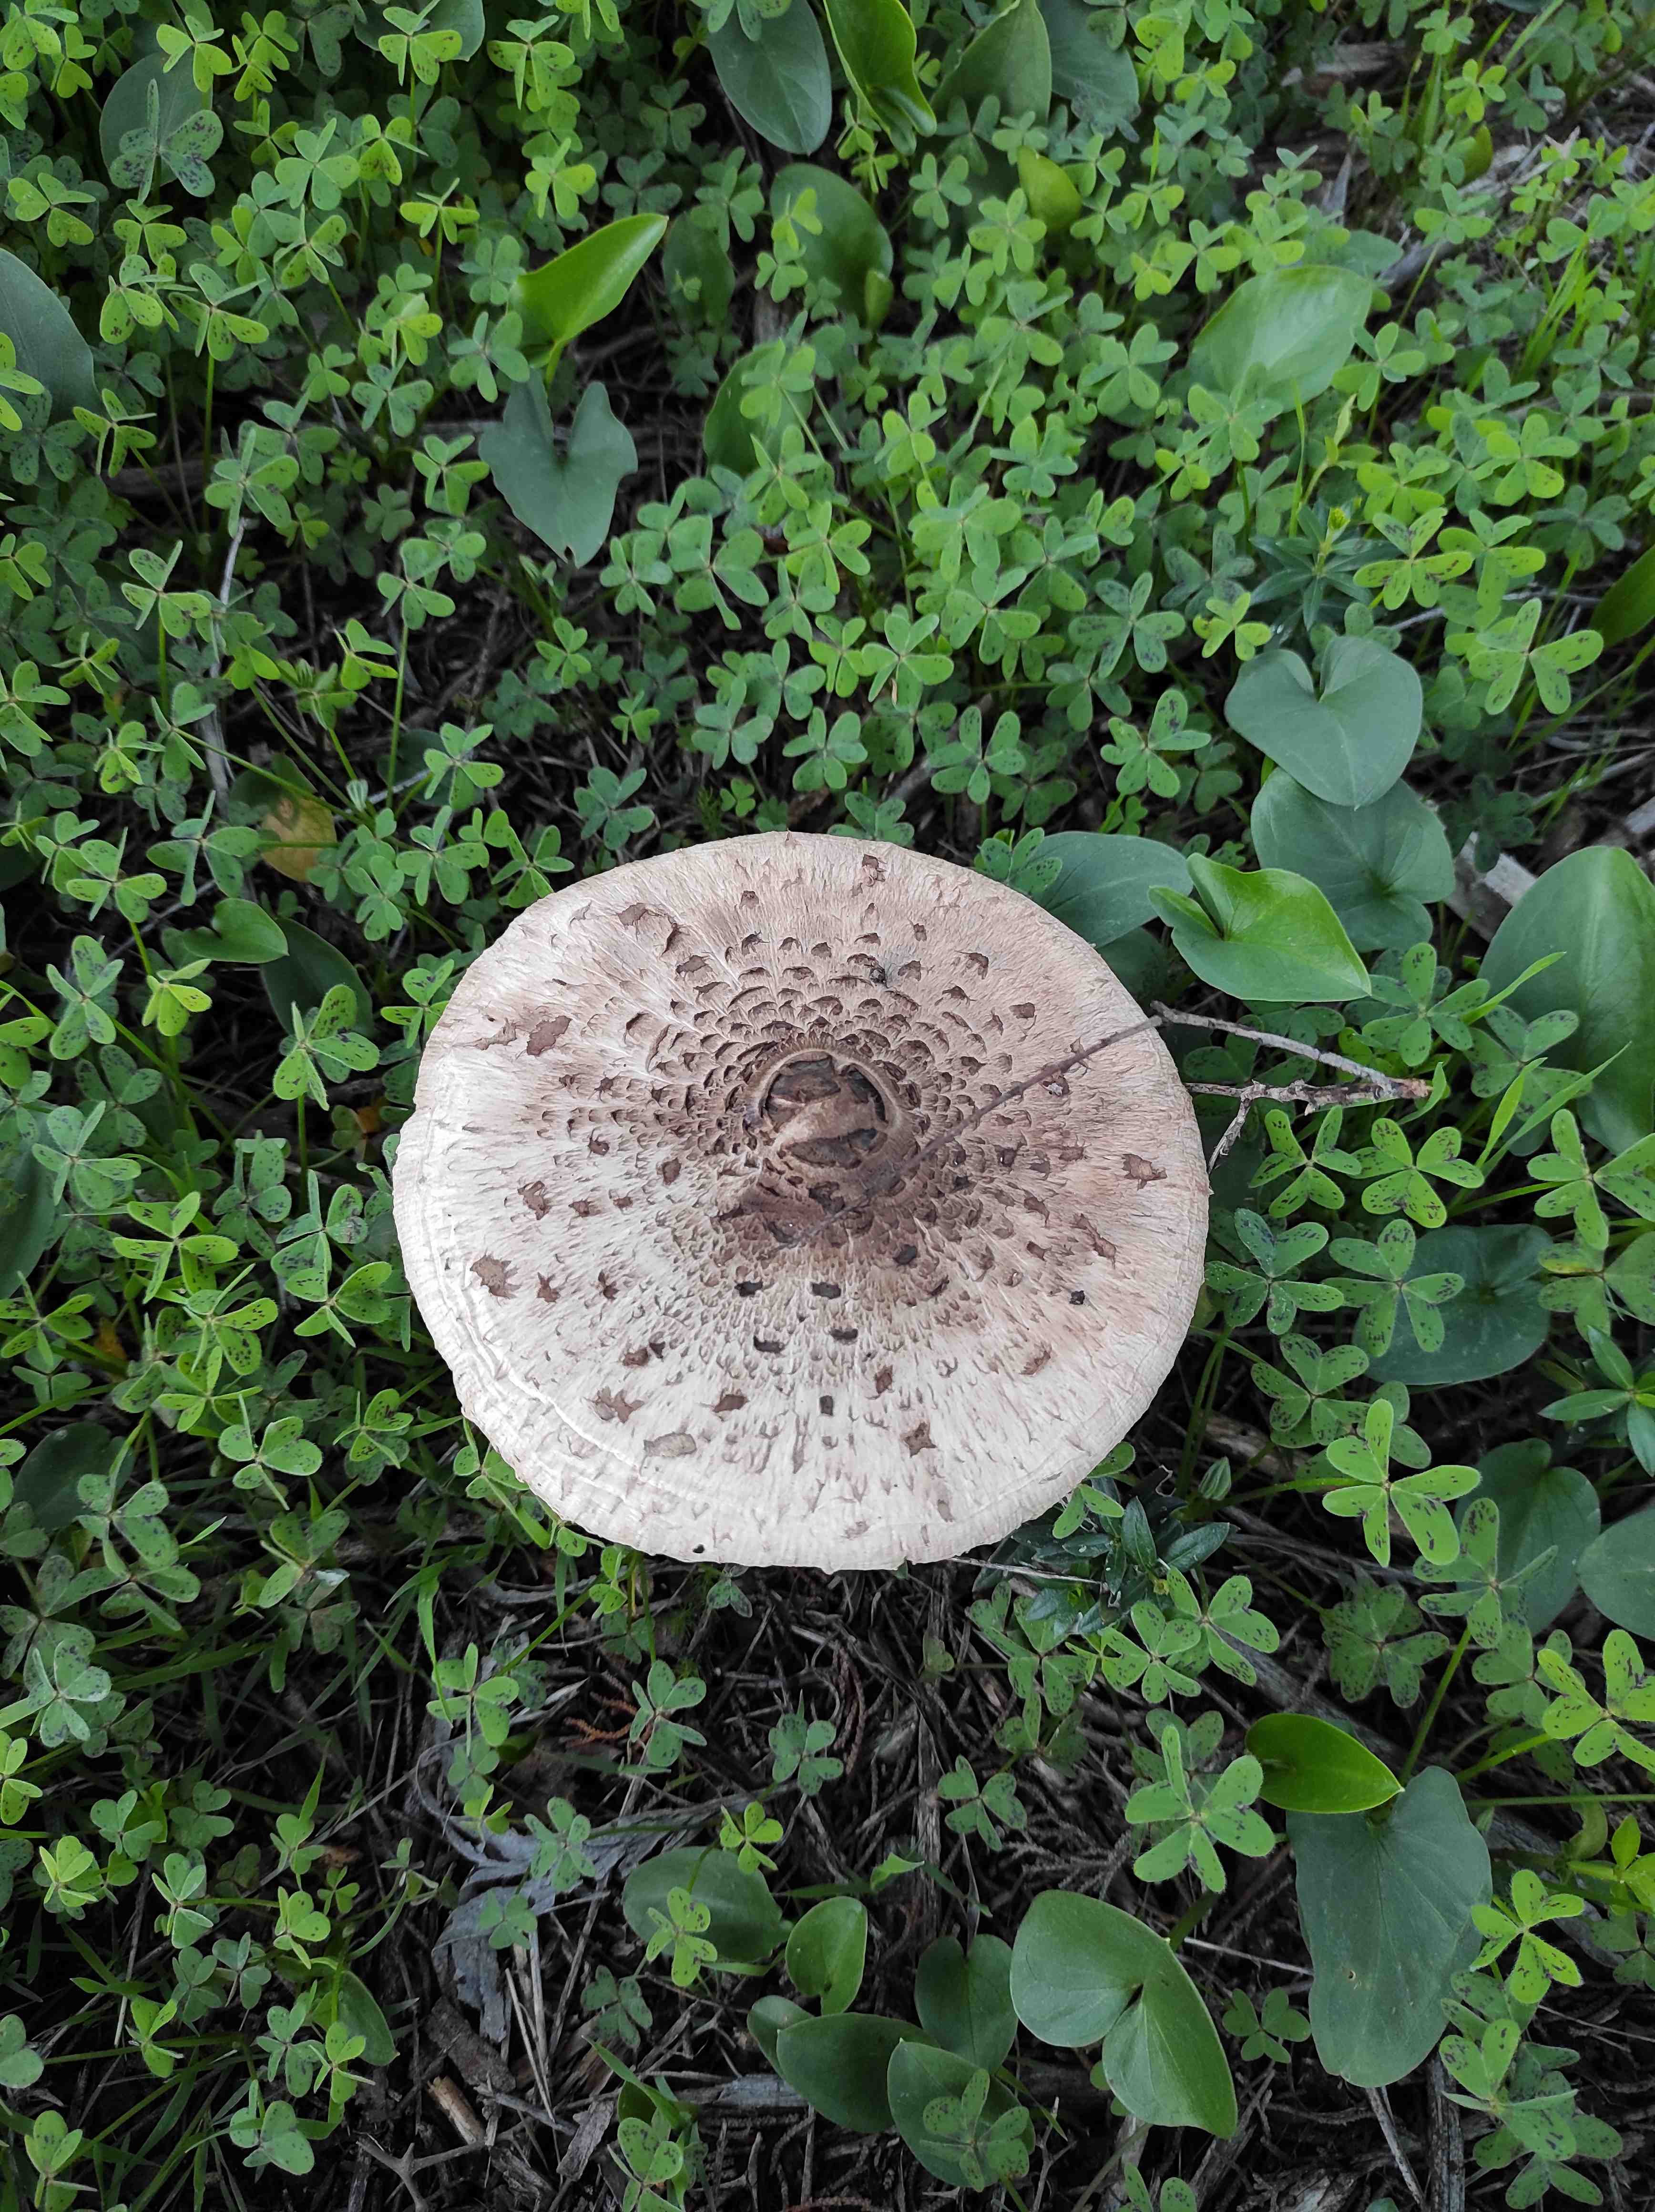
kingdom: Fungi
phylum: Basidiomycota
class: Agaricomycetes
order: Agaricales
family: Agaricaceae
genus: Macrolepiota
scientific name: Macrolepiota procera
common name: stor kæmpeparasolhat
